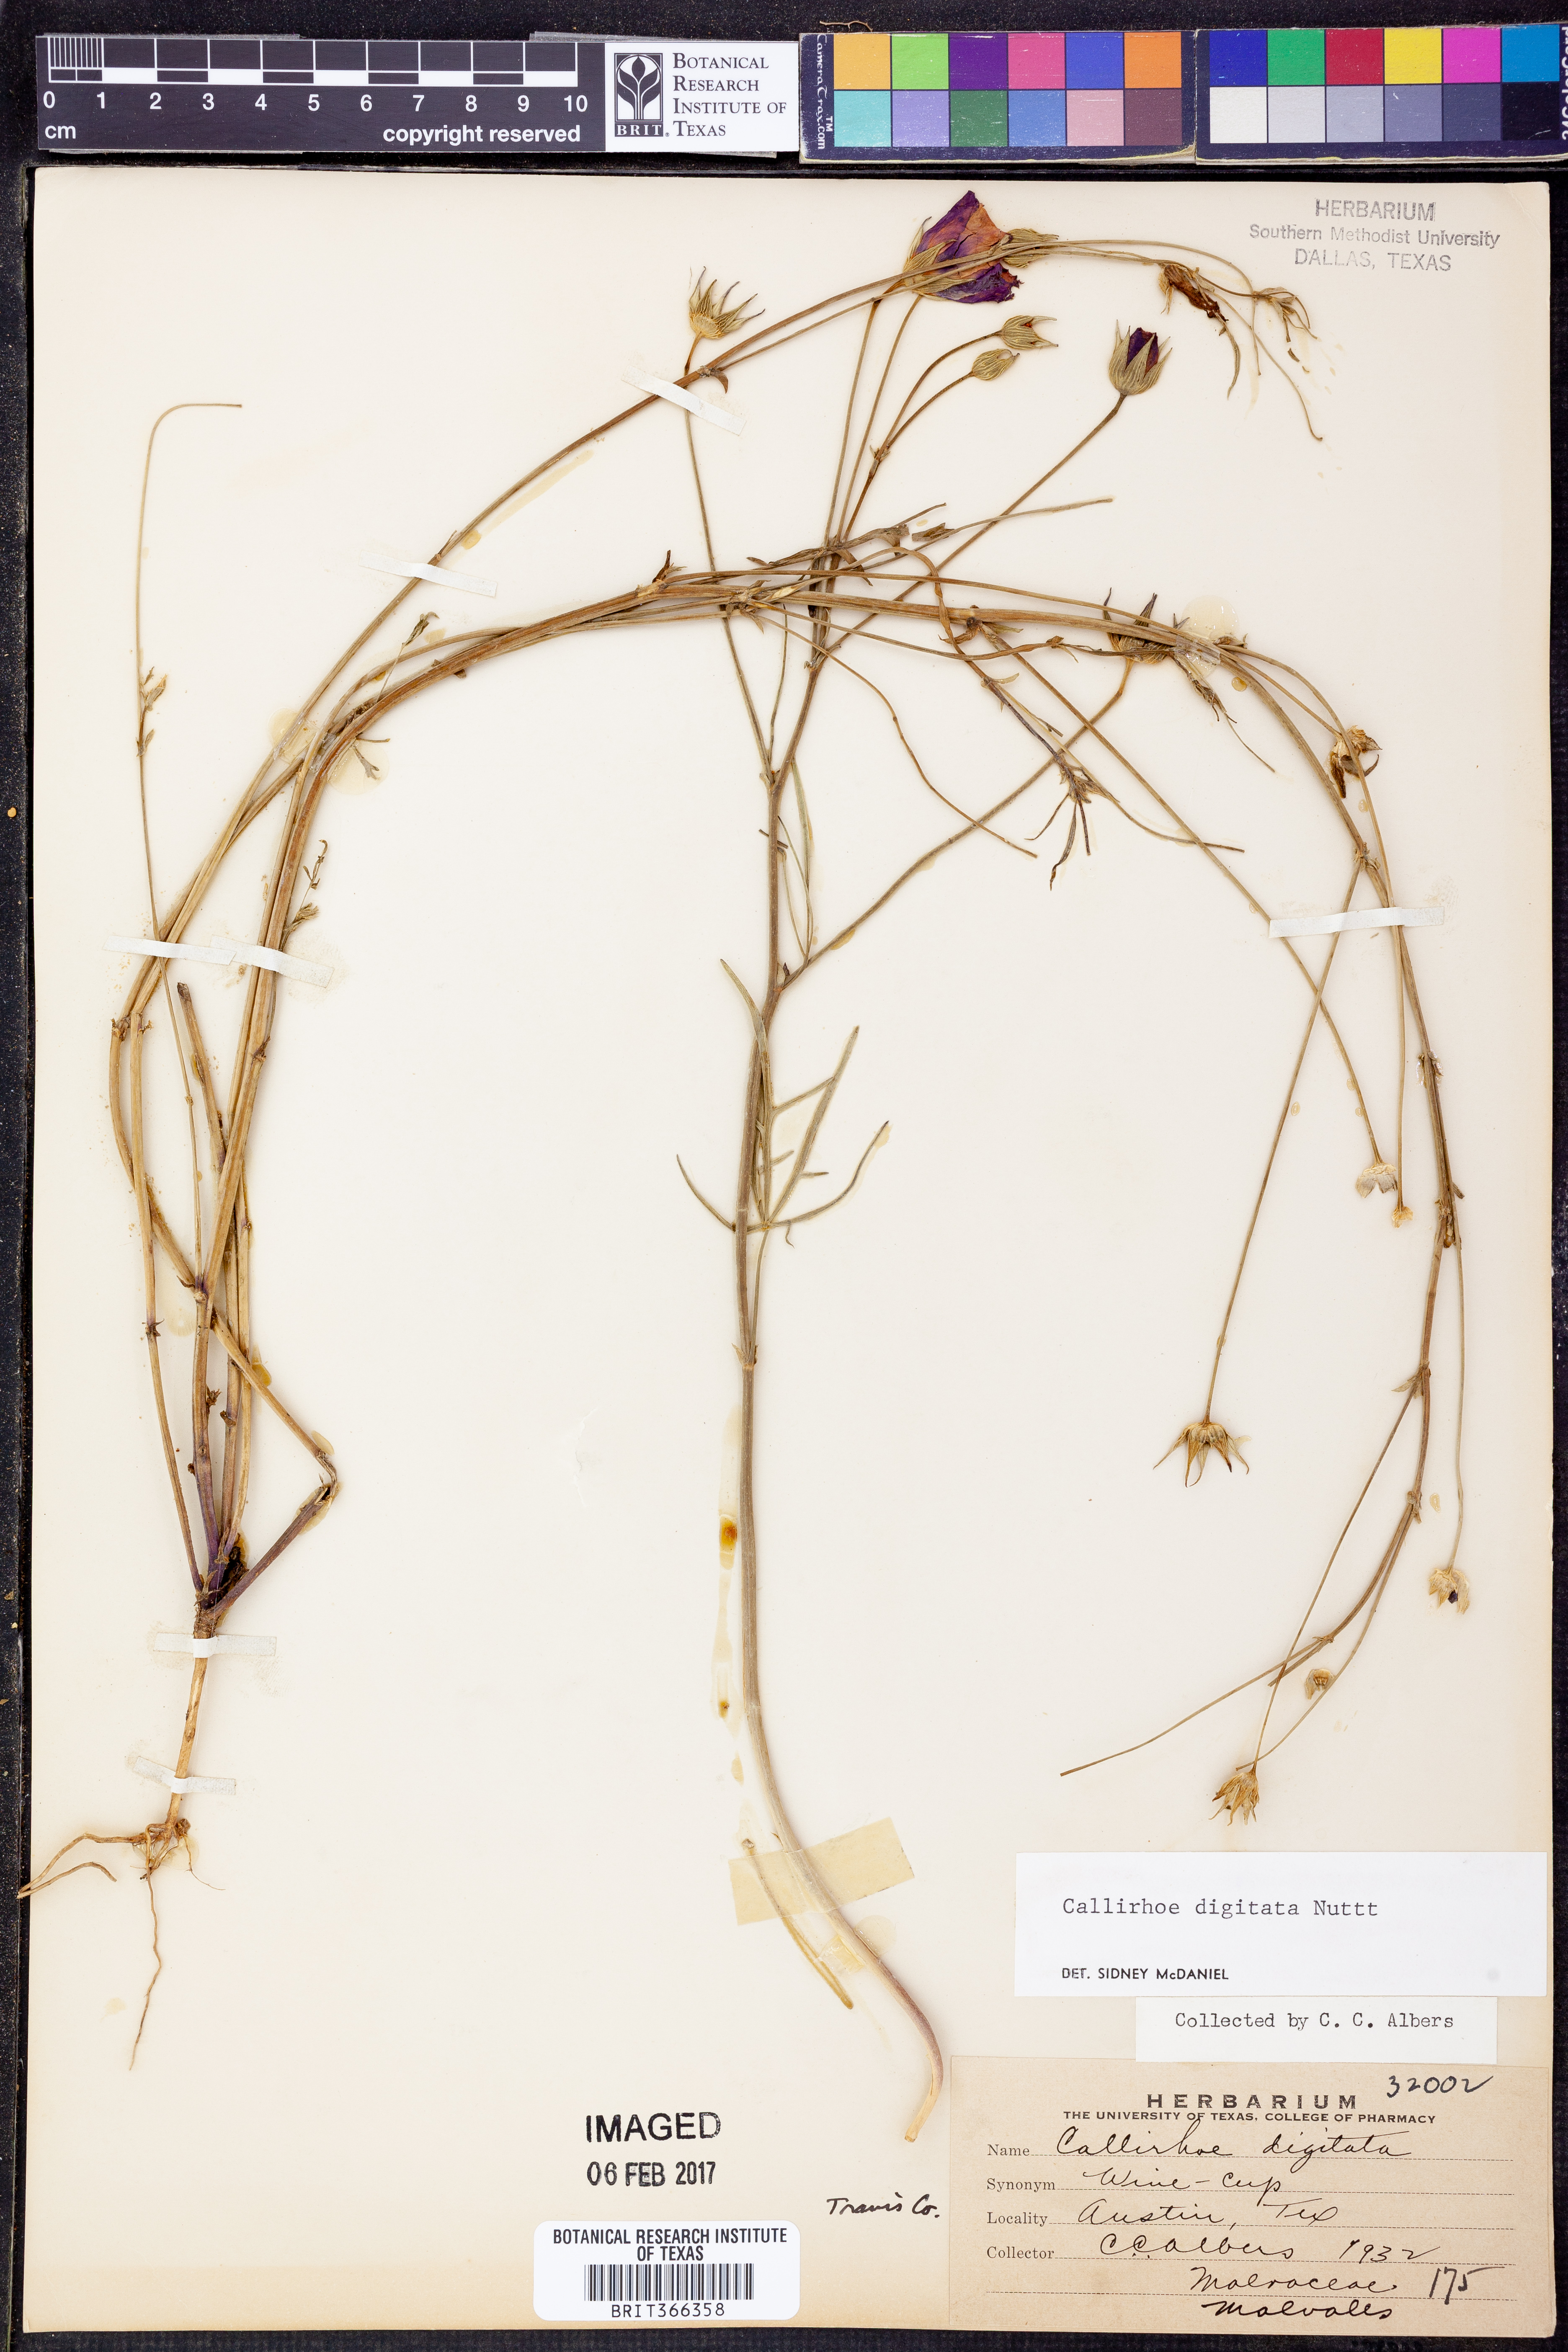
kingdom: Plantae
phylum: Tracheophyta
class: Magnoliopsida
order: Malvales
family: Malvaceae
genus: Callirhoe
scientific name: Callirhoe digitata
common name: Finger poppy-mallow
